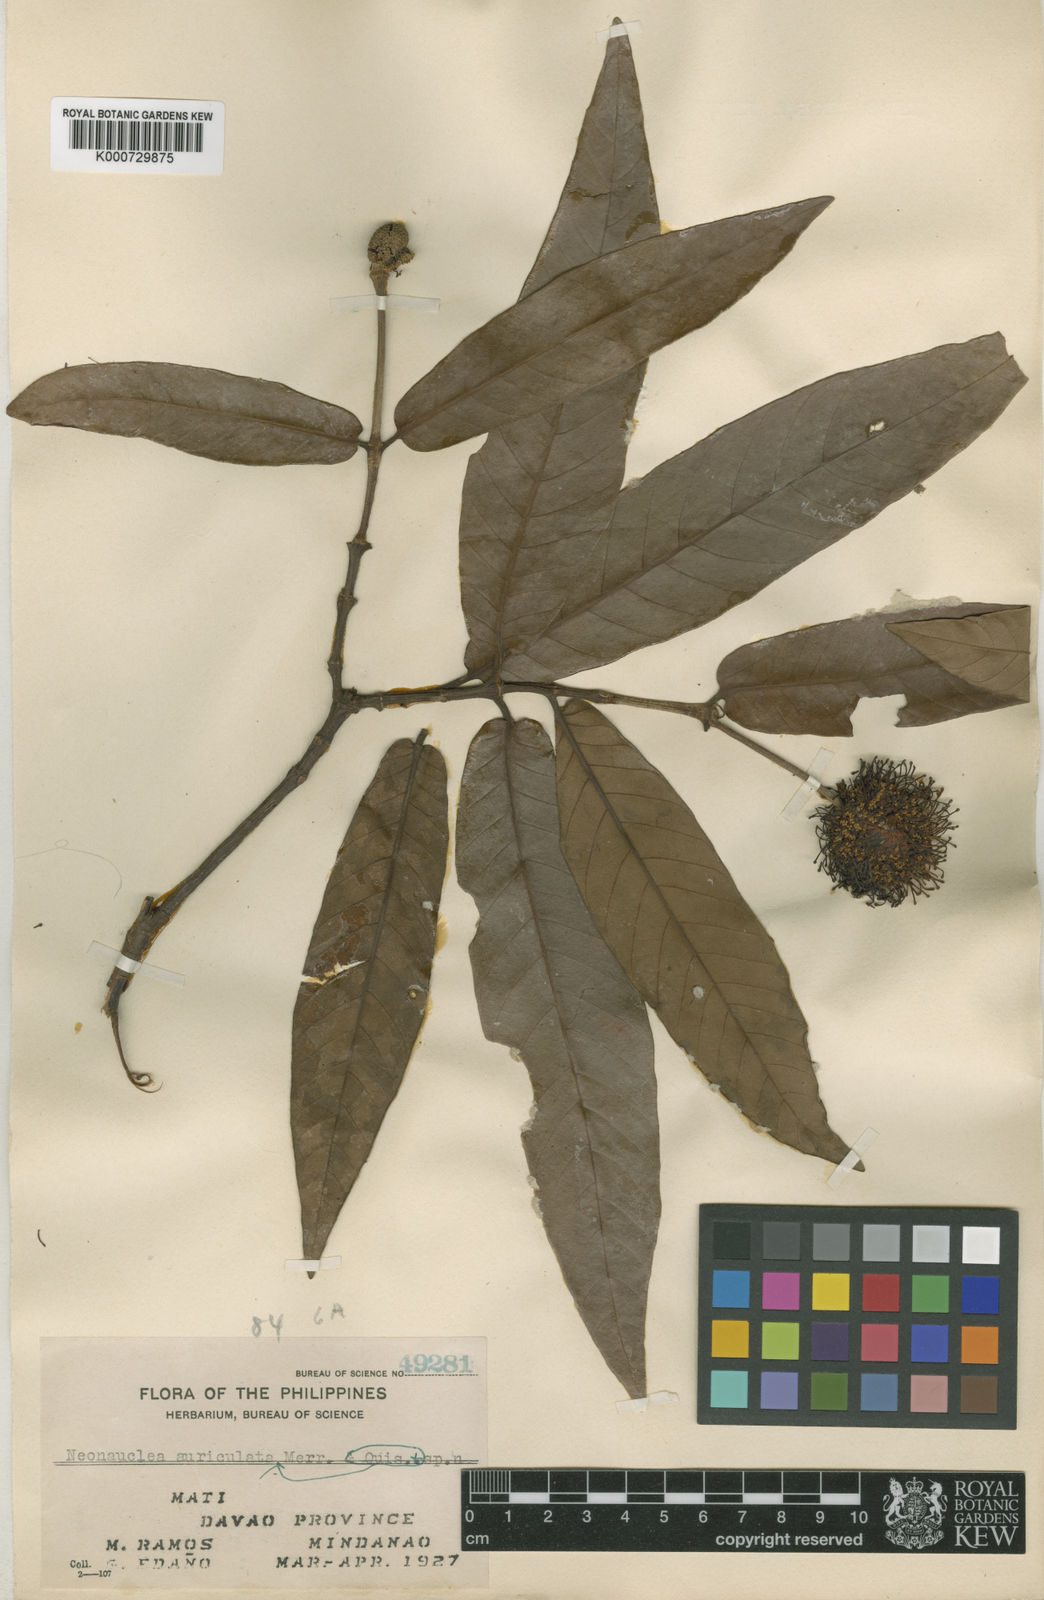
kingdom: Plantae
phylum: Tracheophyta
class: Magnoliopsida
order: Gentianales
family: Rubiaceae
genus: Neonauclea
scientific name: Neonauclea bartlingii
